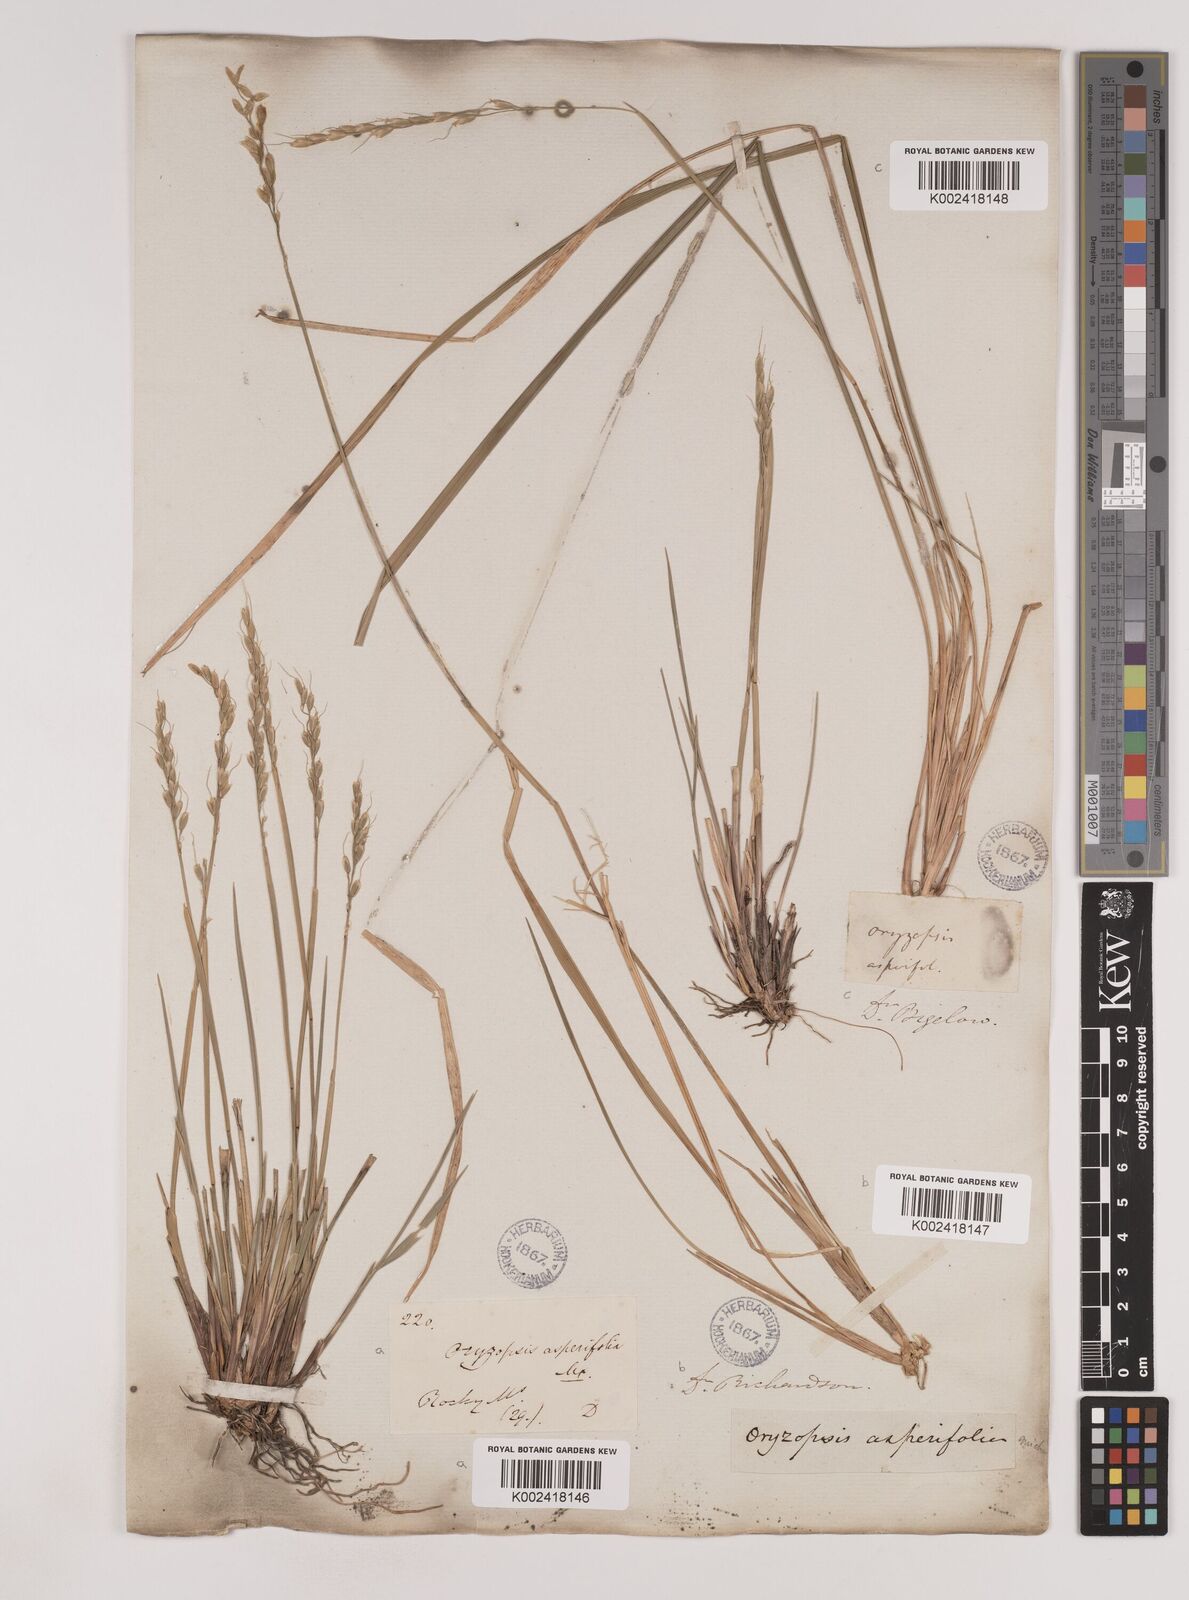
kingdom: Plantae
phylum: Tracheophyta
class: Liliopsida
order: Poales
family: Poaceae
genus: Oryzopsis
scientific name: Oryzopsis asperifolia
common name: Rough-leaved mountain rice
